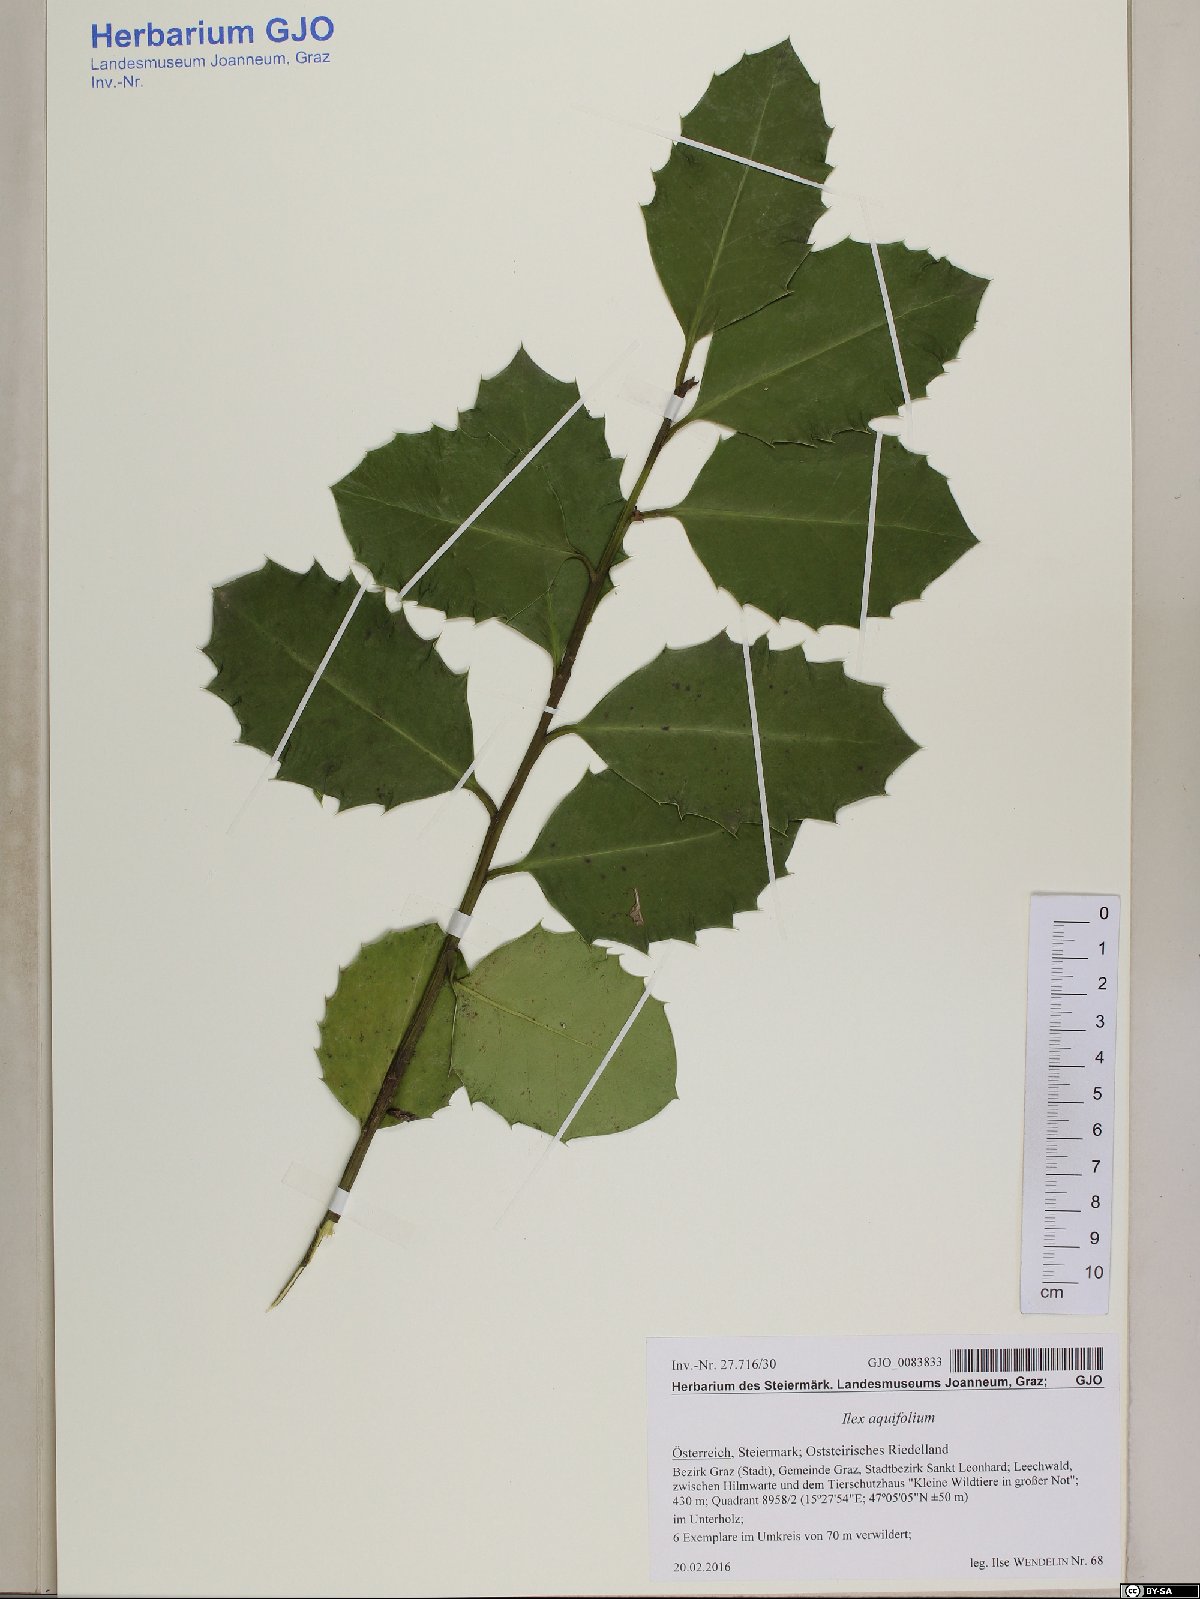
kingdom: Plantae
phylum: Tracheophyta
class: Magnoliopsida
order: Aquifoliales
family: Aquifoliaceae
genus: Ilex
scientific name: Ilex aquifolium
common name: English holly
